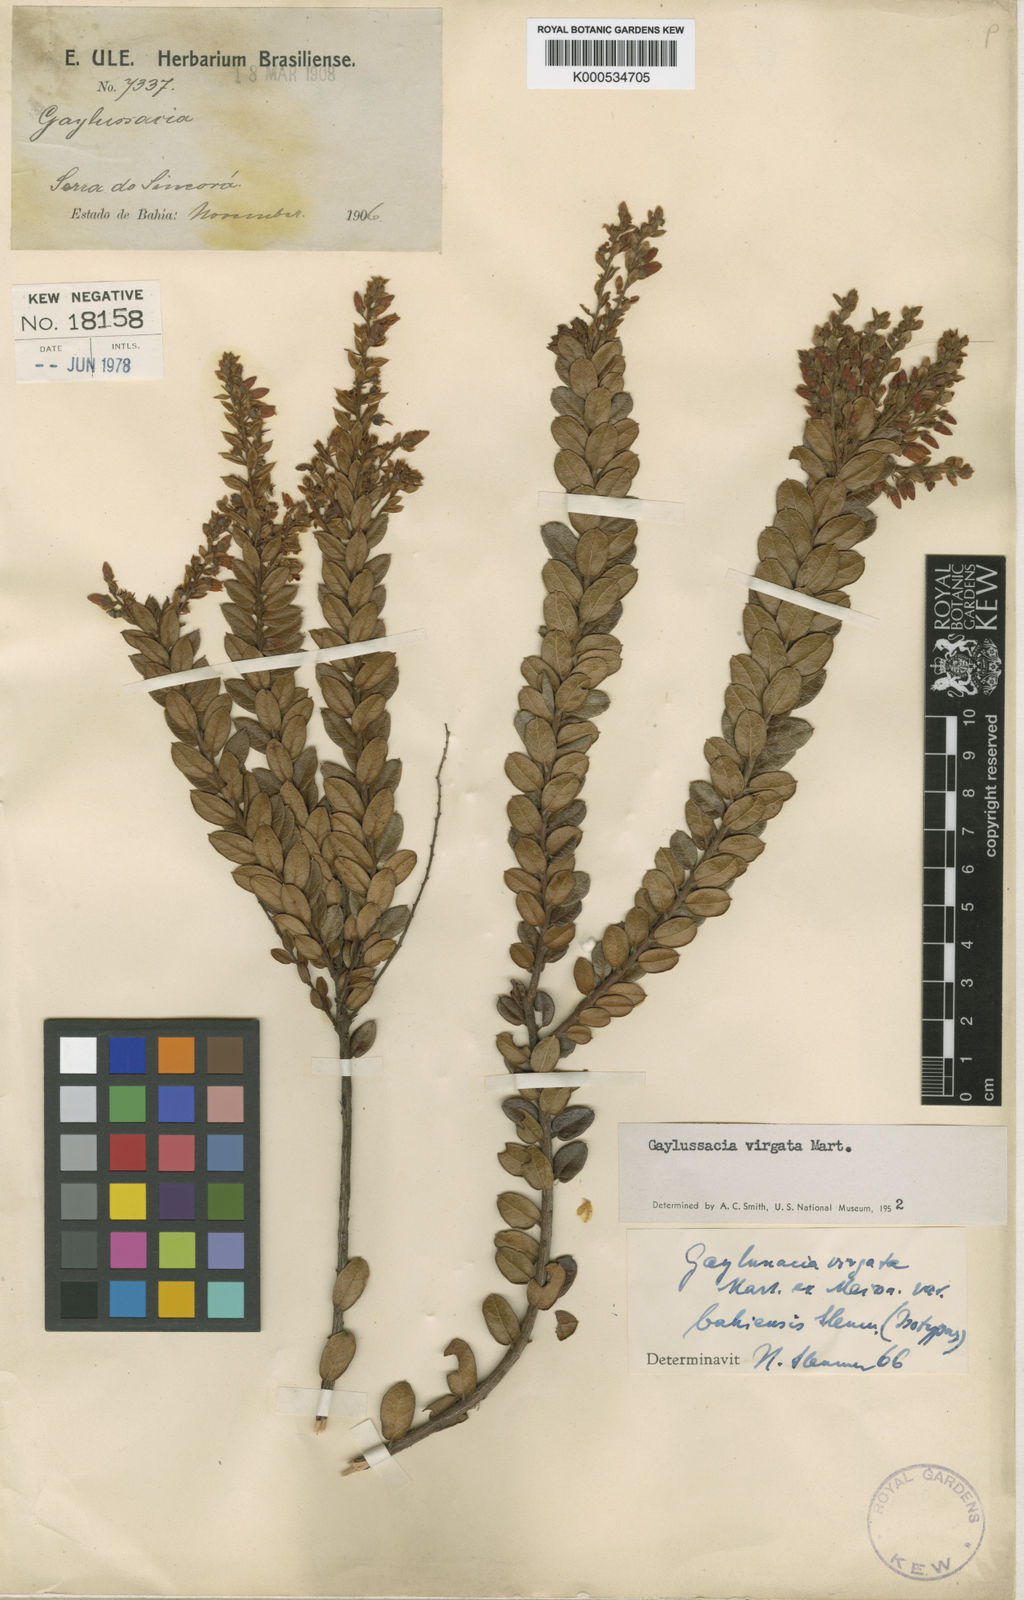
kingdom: Plantae
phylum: Tracheophyta
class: Magnoliopsida
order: Ericales
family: Ericaceae
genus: Gaylussacia
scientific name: Gaylussacia virgata
